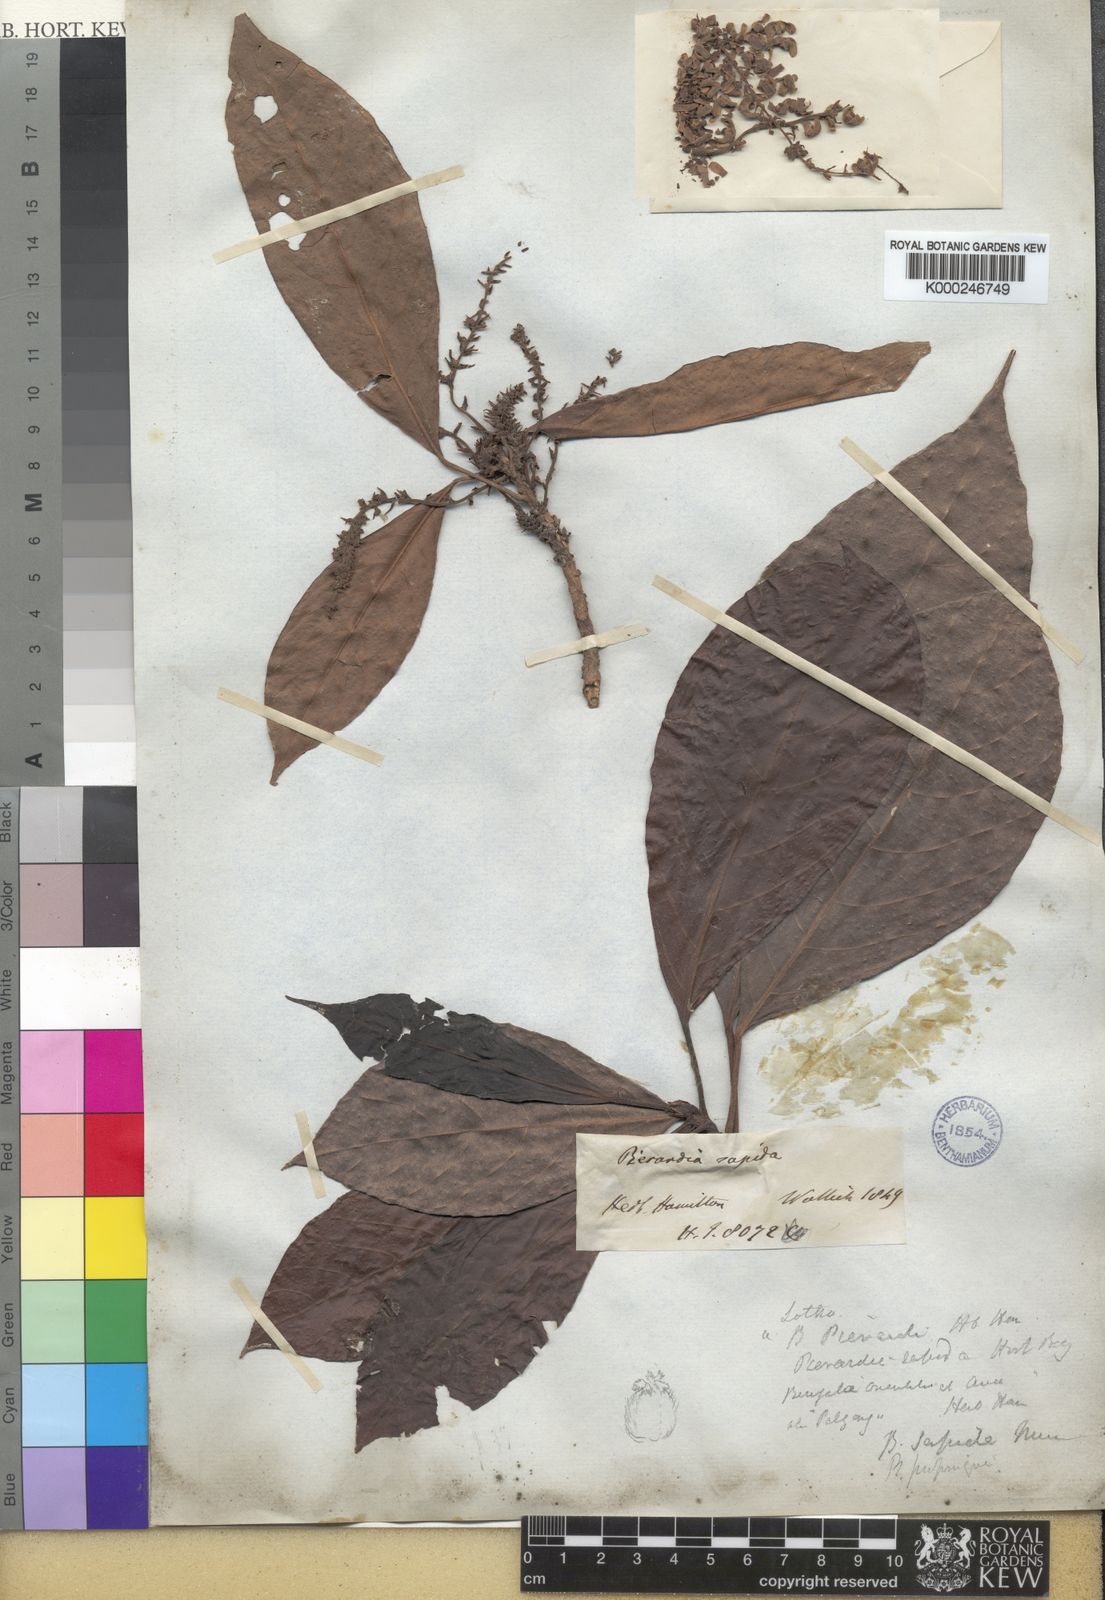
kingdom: Plantae
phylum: Tracheophyta
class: Magnoliopsida
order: Malpighiales
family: Phyllanthaceae
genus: Baccaurea
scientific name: Baccaurea ramiflora
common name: Baccaurea
